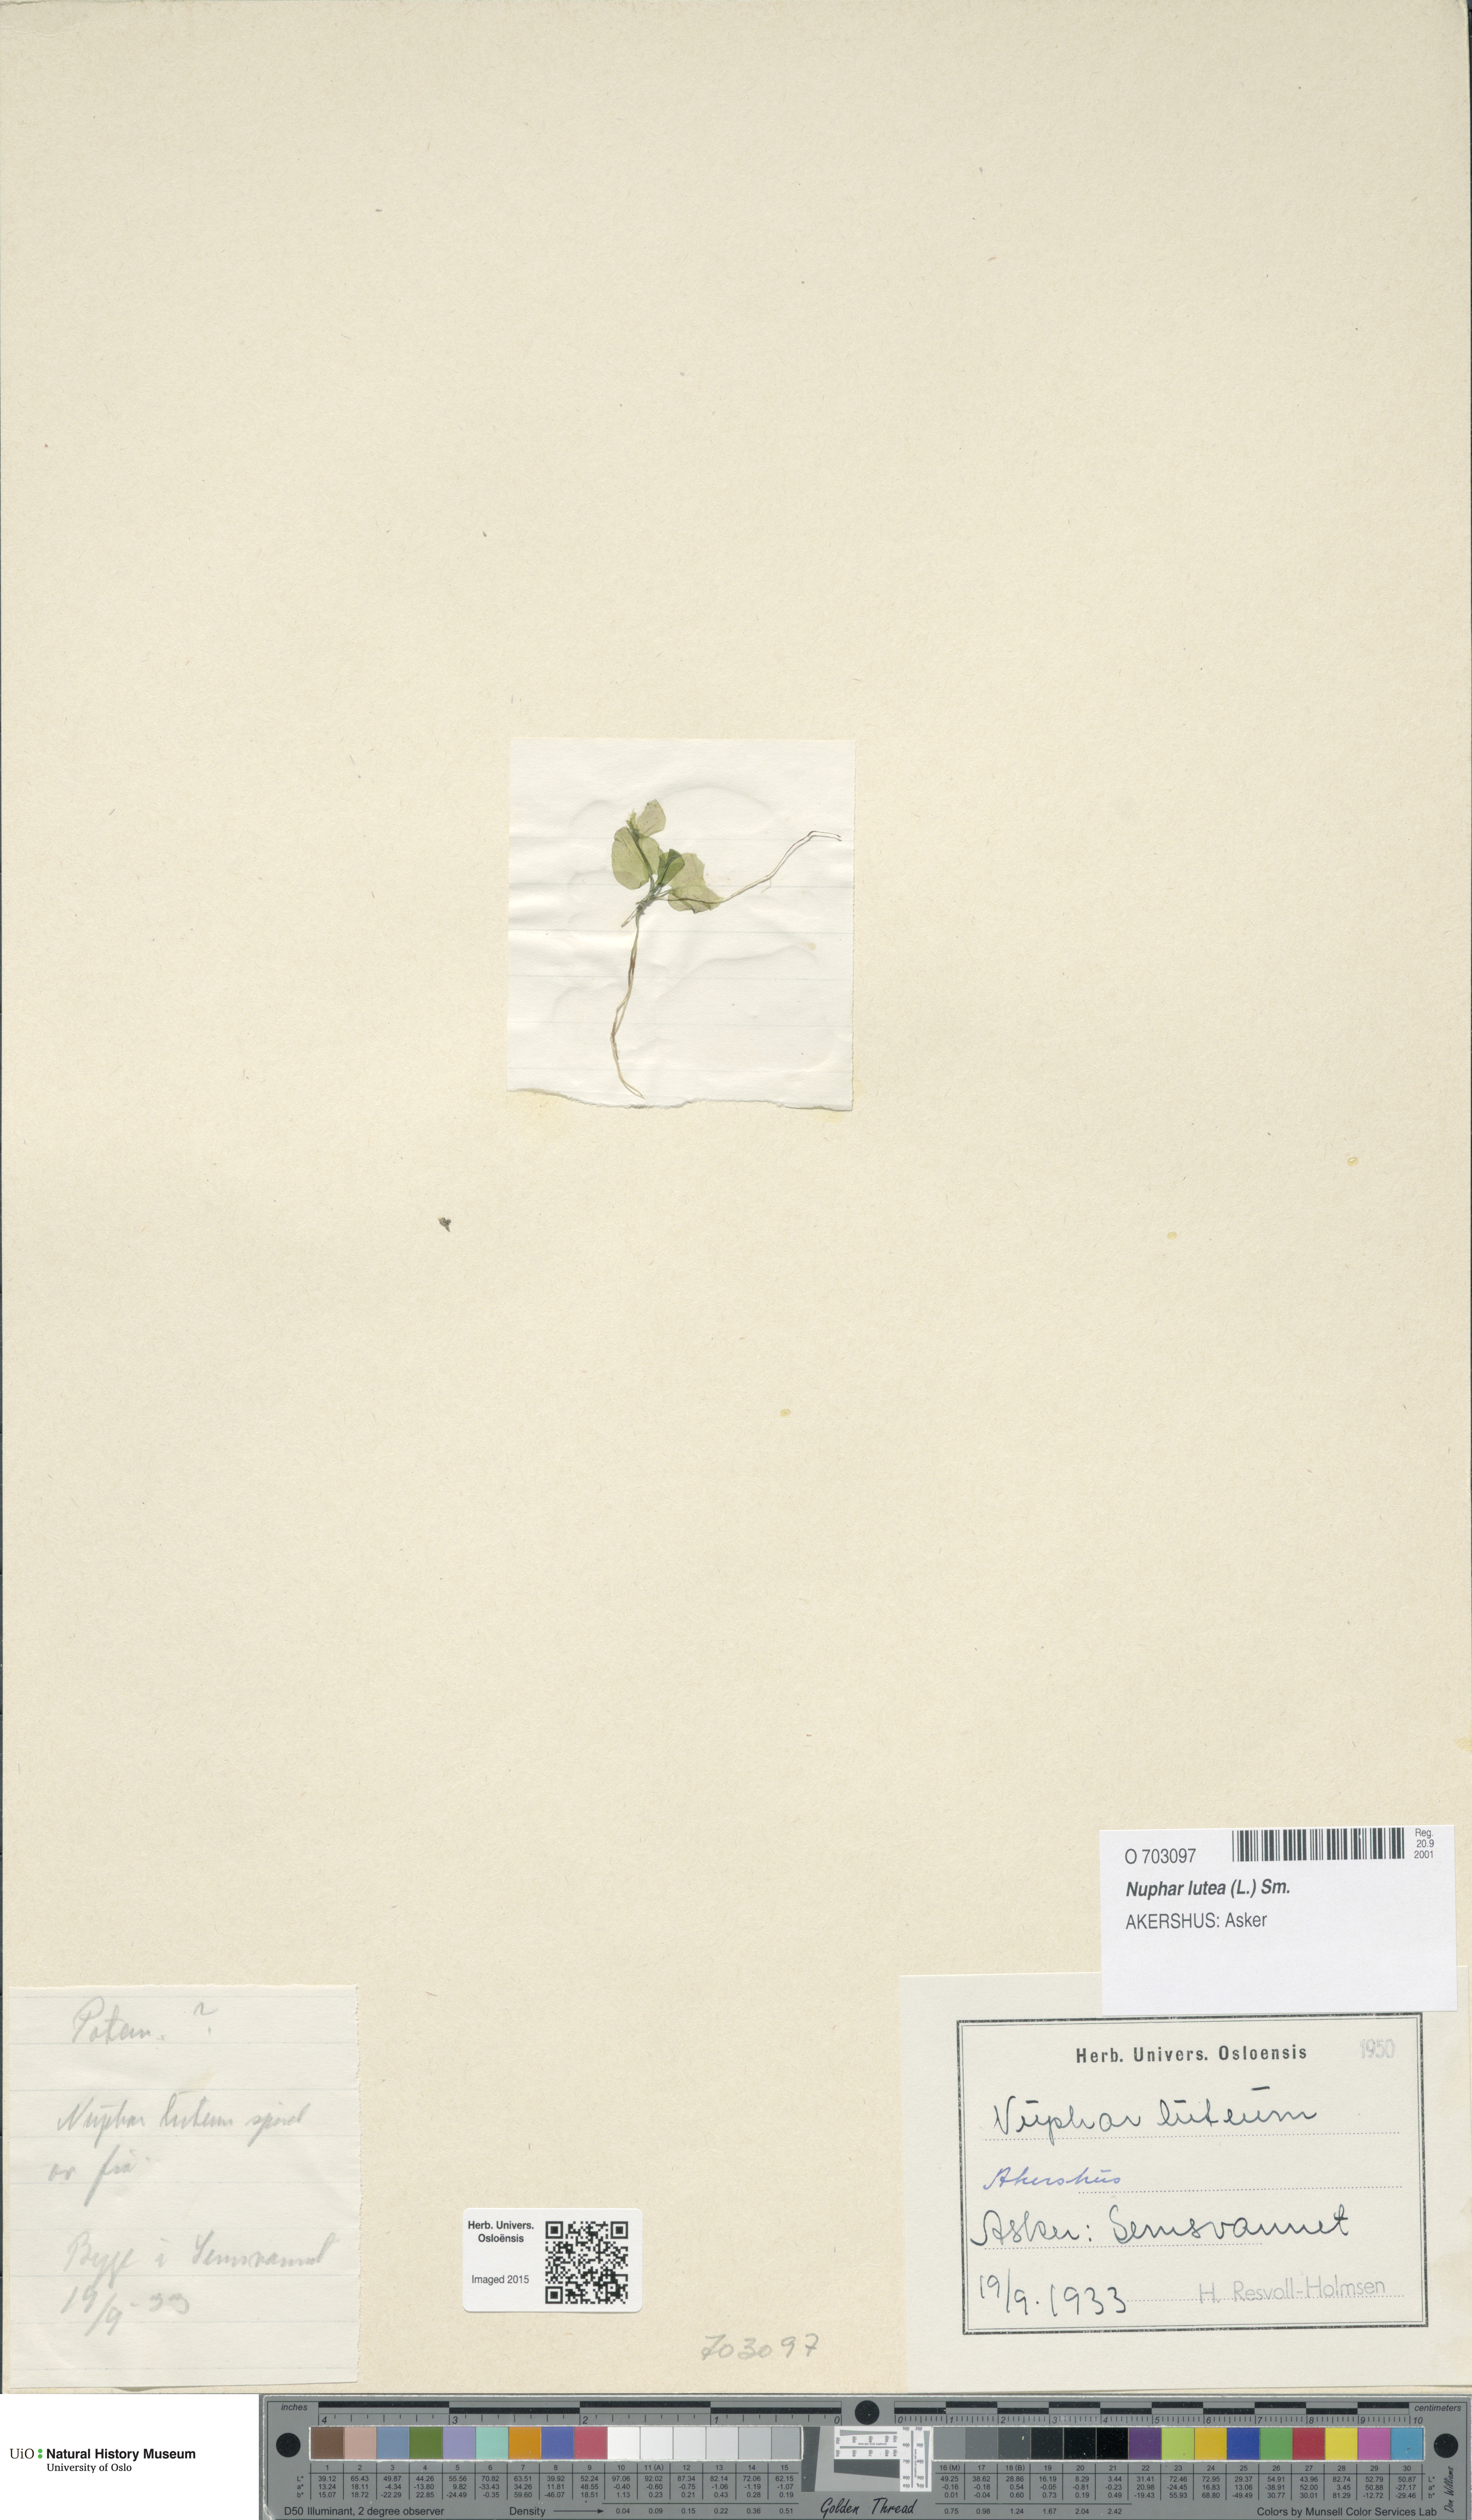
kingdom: Plantae
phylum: Tracheophyta
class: Magnoliopsida
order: Nymphaeales
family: Nymphaeaceae
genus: Nuphar
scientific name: Nuphar lutea
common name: Yellow water-lily
